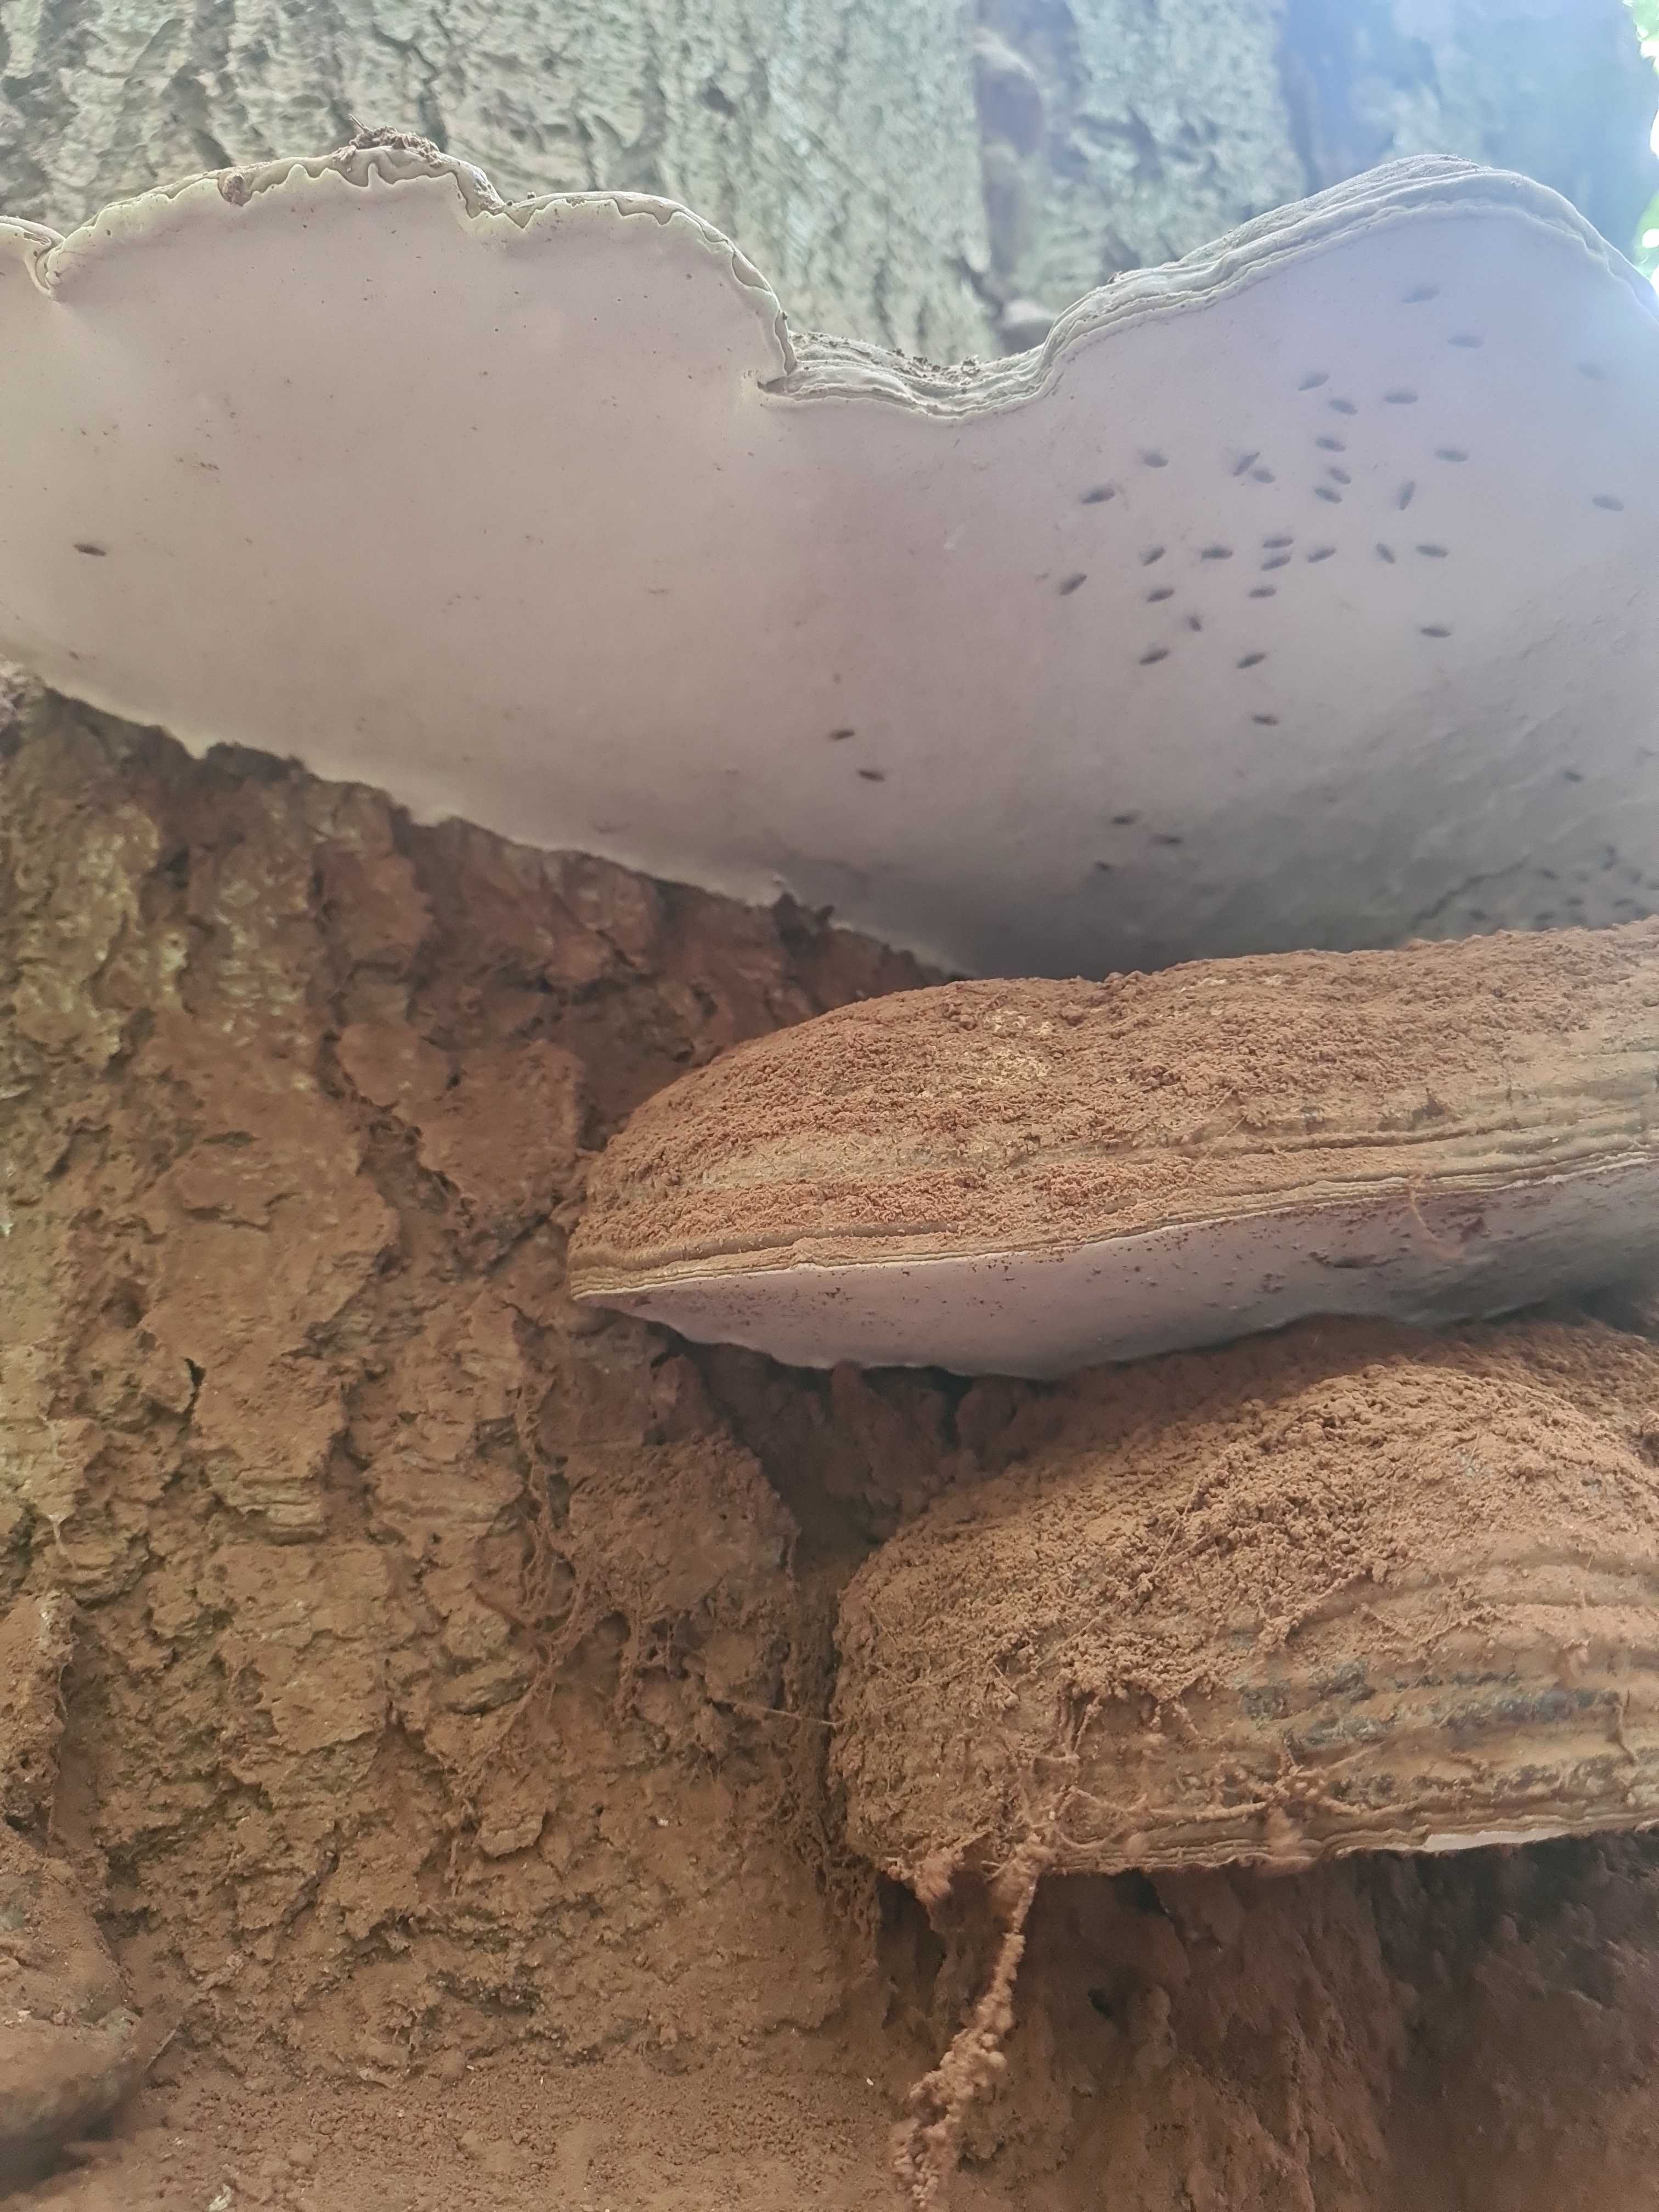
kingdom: Fungi
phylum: Basidiomycota
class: Agaricomycetes
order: Polyporales
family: Polyporaceae
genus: Ganoderma
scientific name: Ganoderma applanatum
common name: flad lakporesvamp
